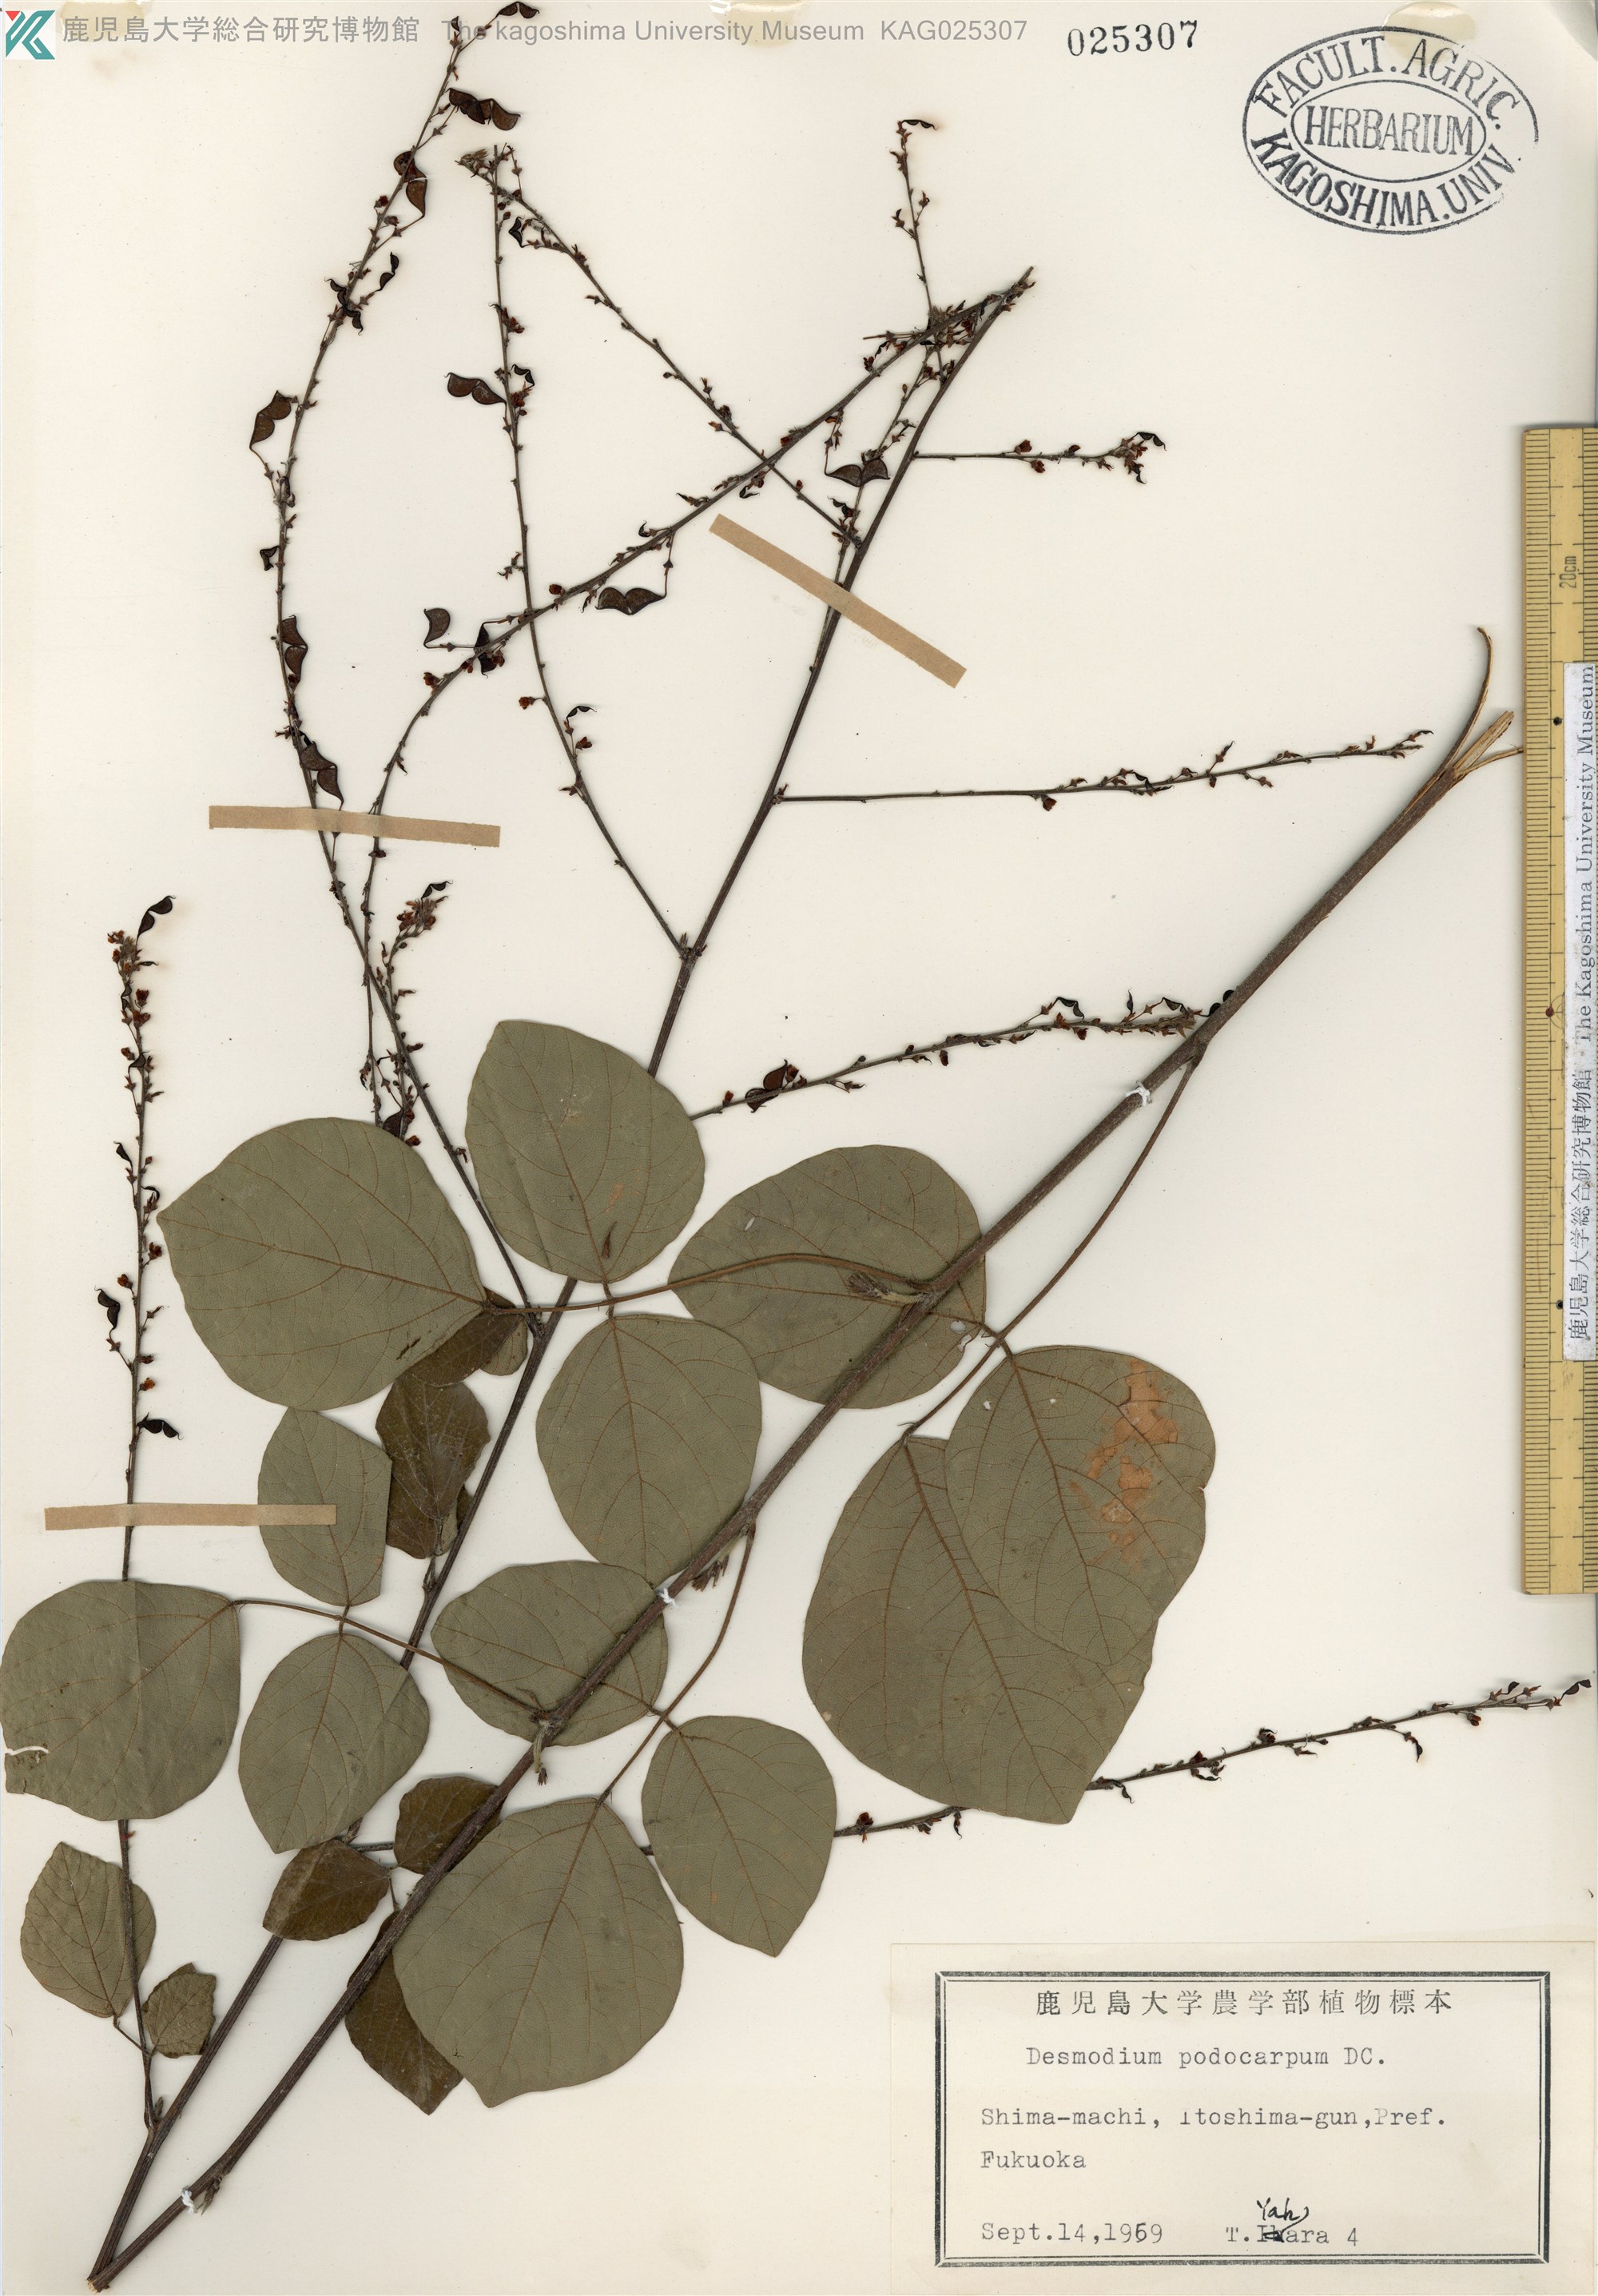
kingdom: Plantae
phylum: Tracheophyta
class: Magnoliopsida
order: Fabales
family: Fabaceae
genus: Hylodesmum
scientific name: Hylodesmum podocarpum
